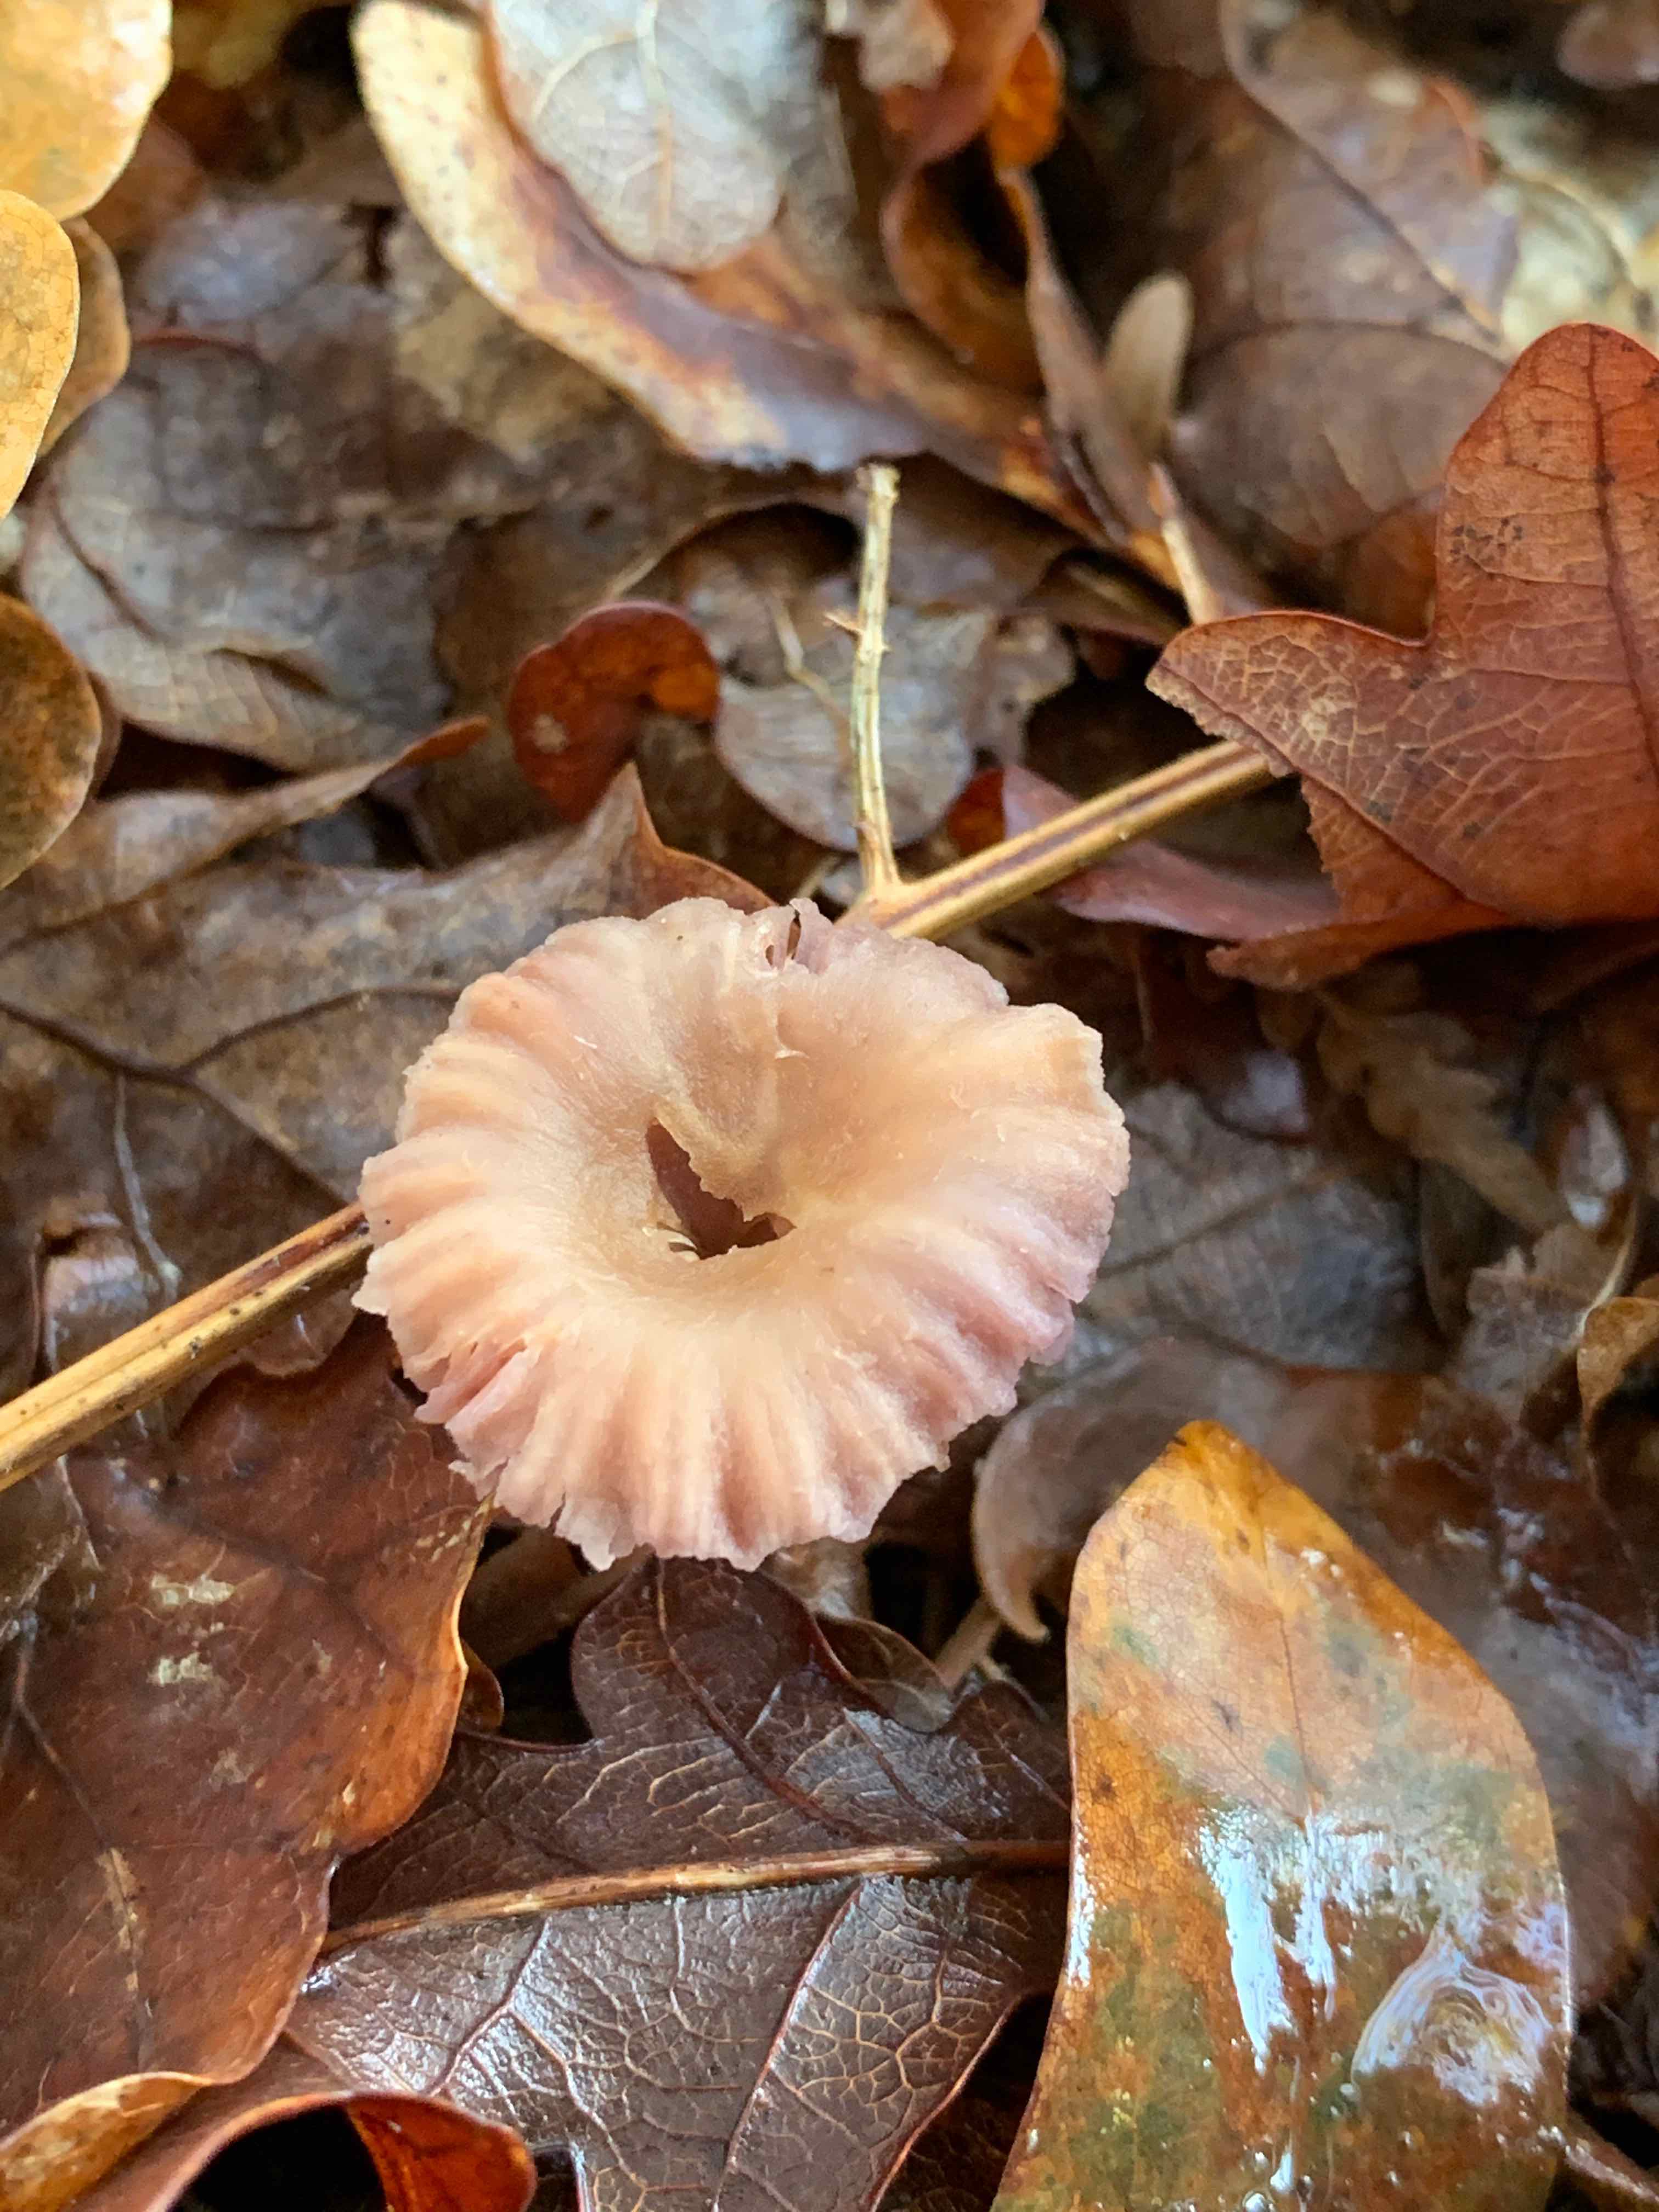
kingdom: Fungi
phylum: Basidiomycota
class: Agaricomycetes
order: Agaricales
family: Hydnangiaceae
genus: Laccaria
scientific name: Laccaria
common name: ametysthat
